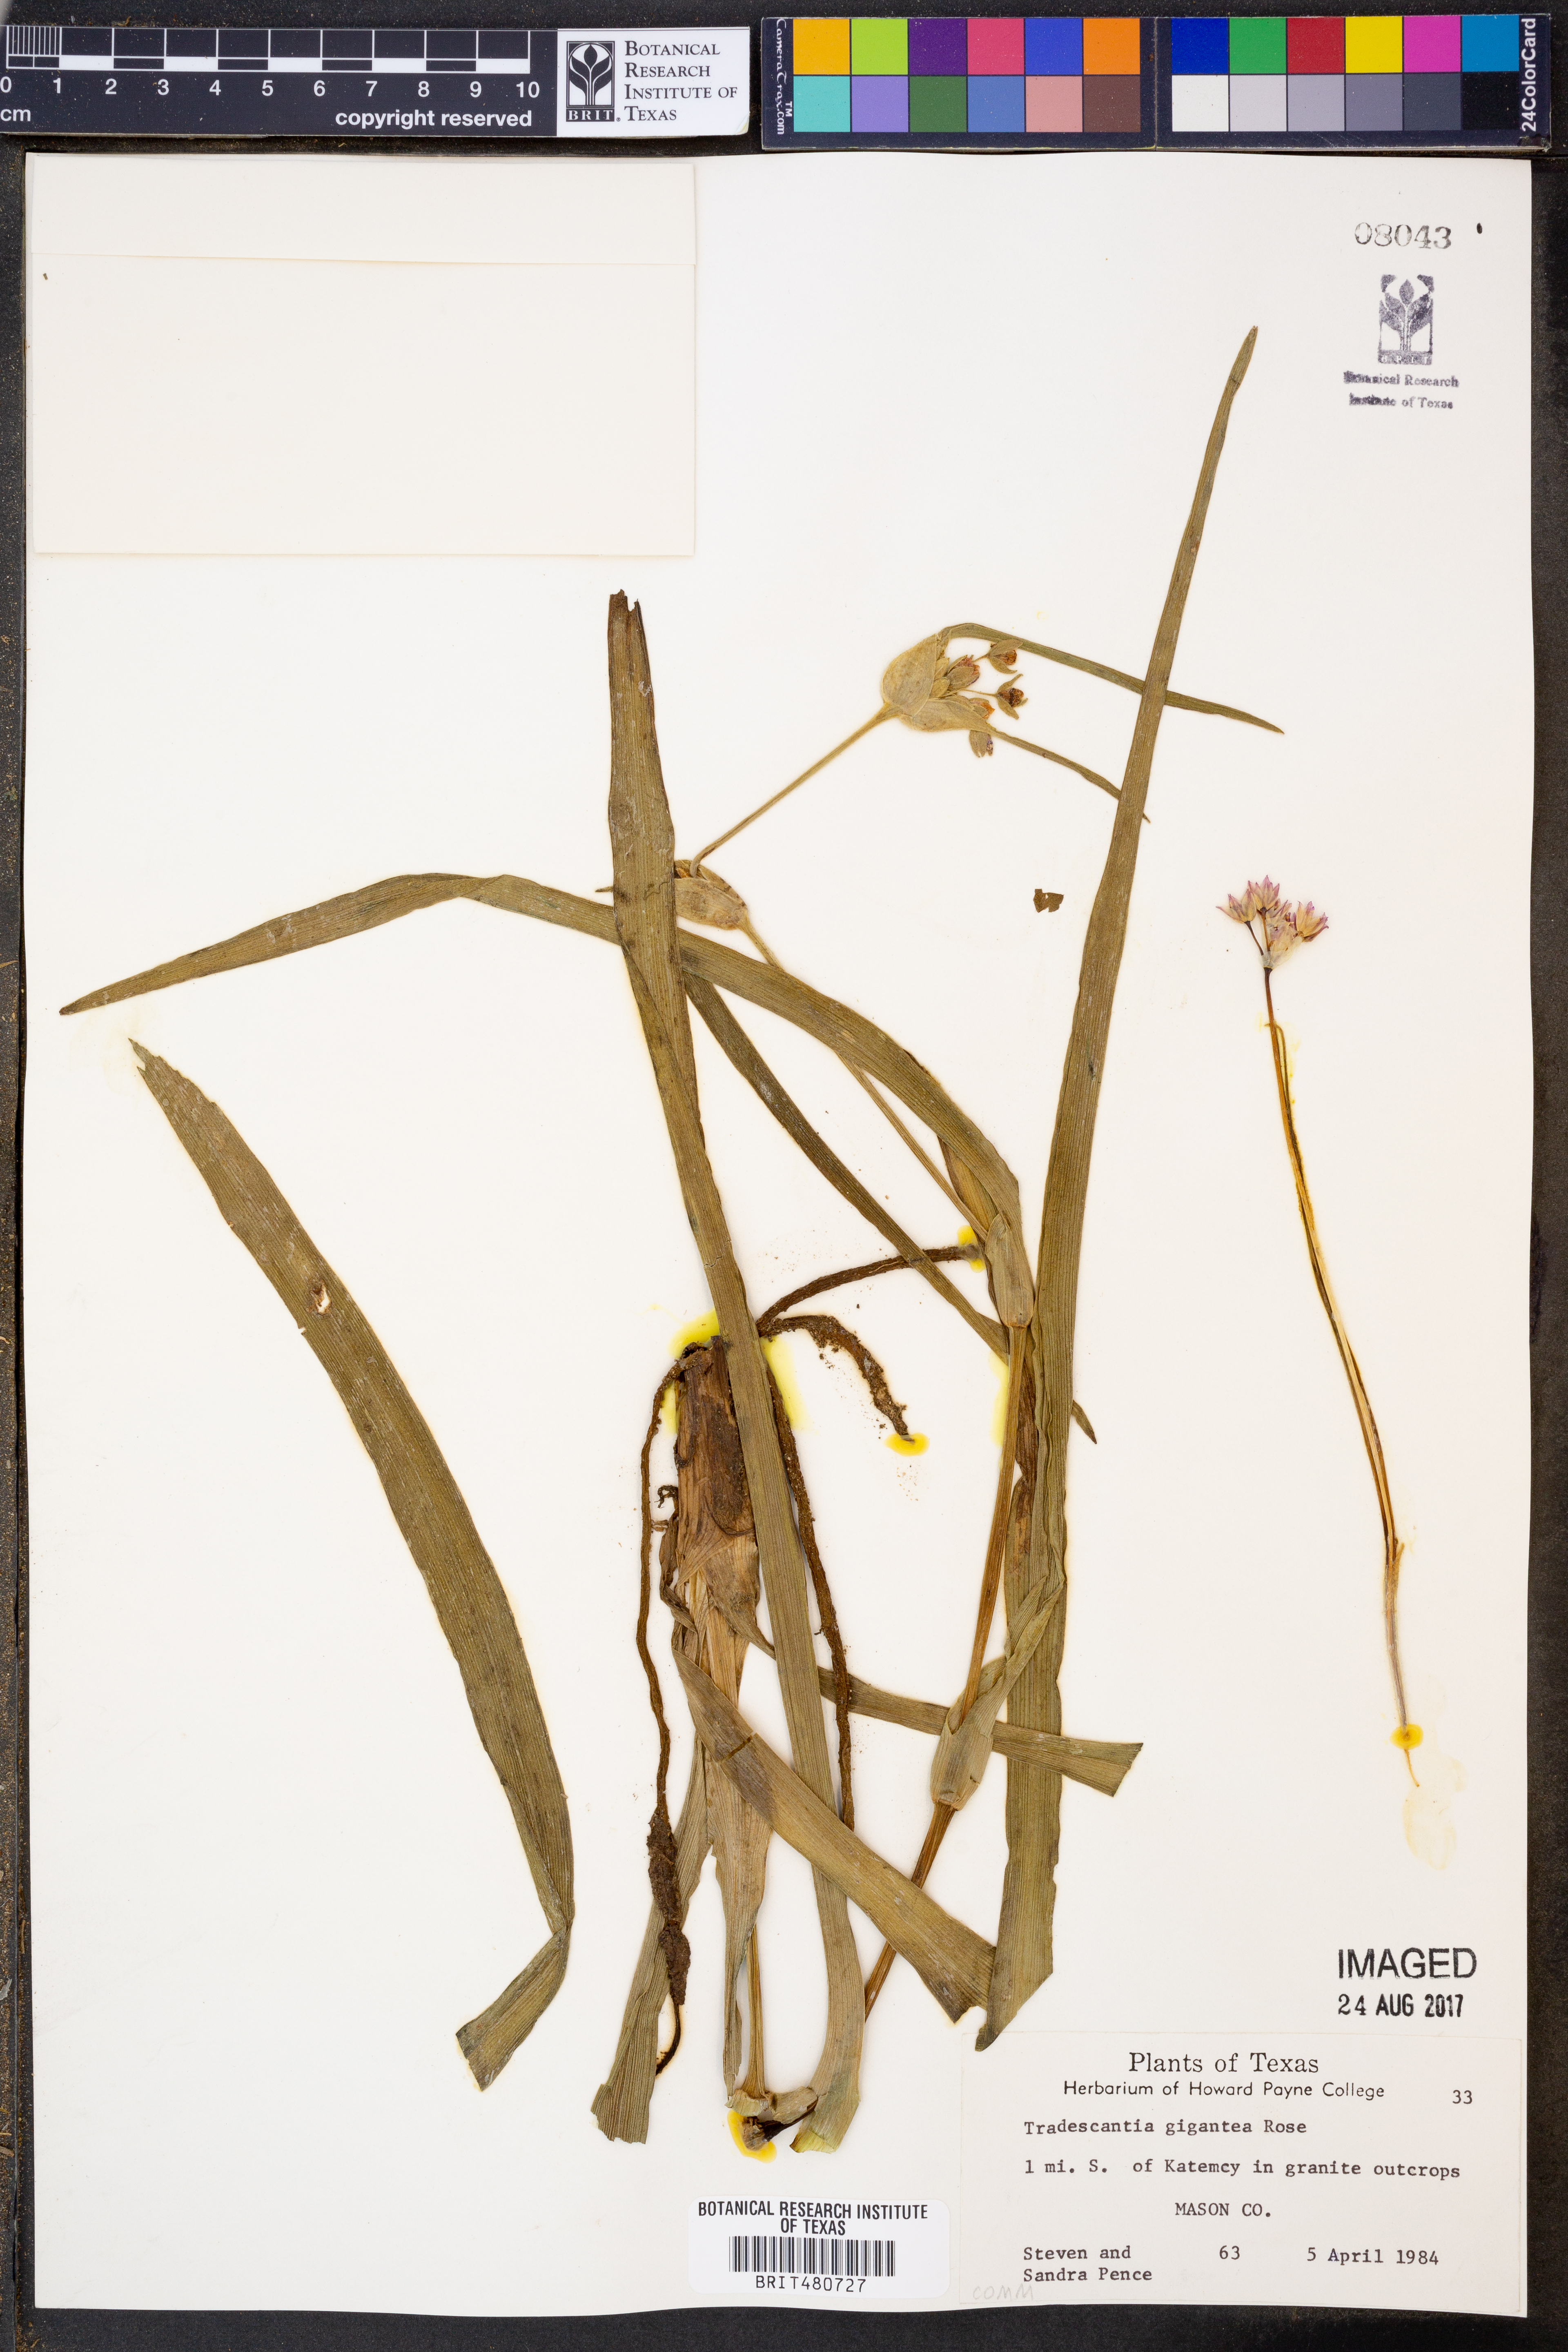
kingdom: Plantae
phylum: Tracheophyta
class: Liliopsida
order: Commelinales
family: Commelinaceae
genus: Tradescantia
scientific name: Tradescantia gigantea
